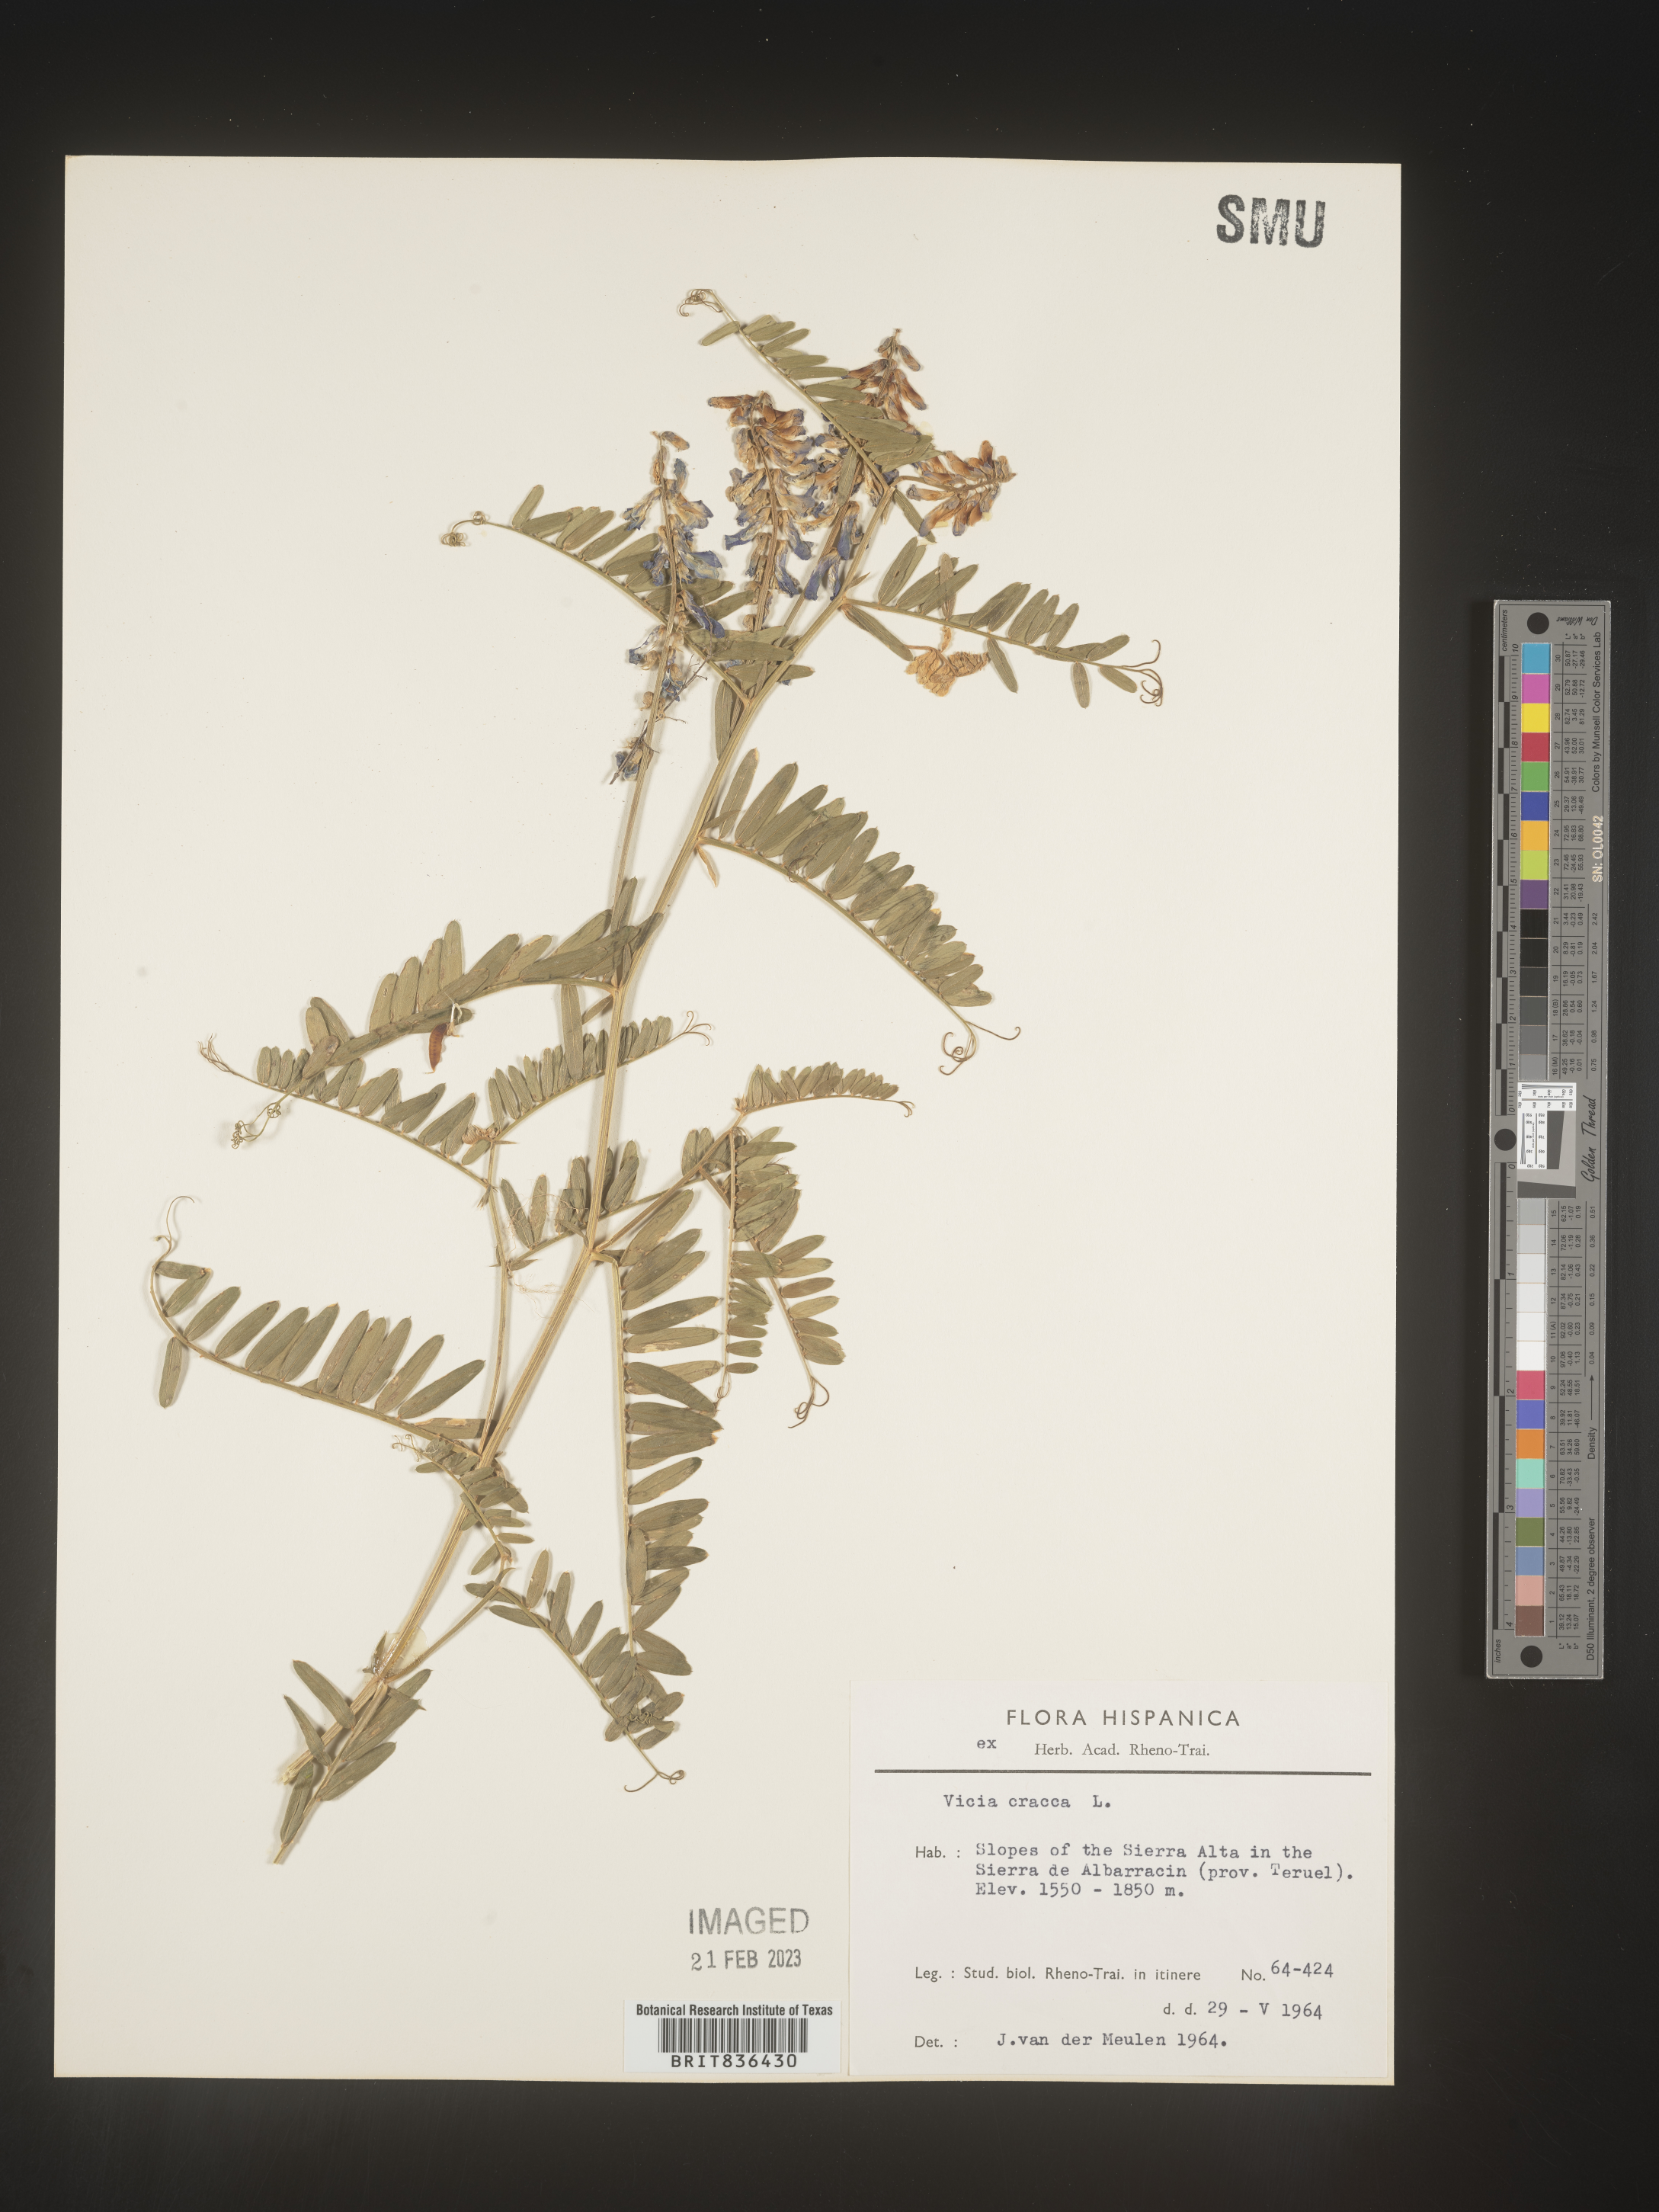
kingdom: Plantae
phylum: Tracheophyta
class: Magnoliopsida
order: Fabales
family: Fabaceae
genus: Vicia
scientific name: Vicia
